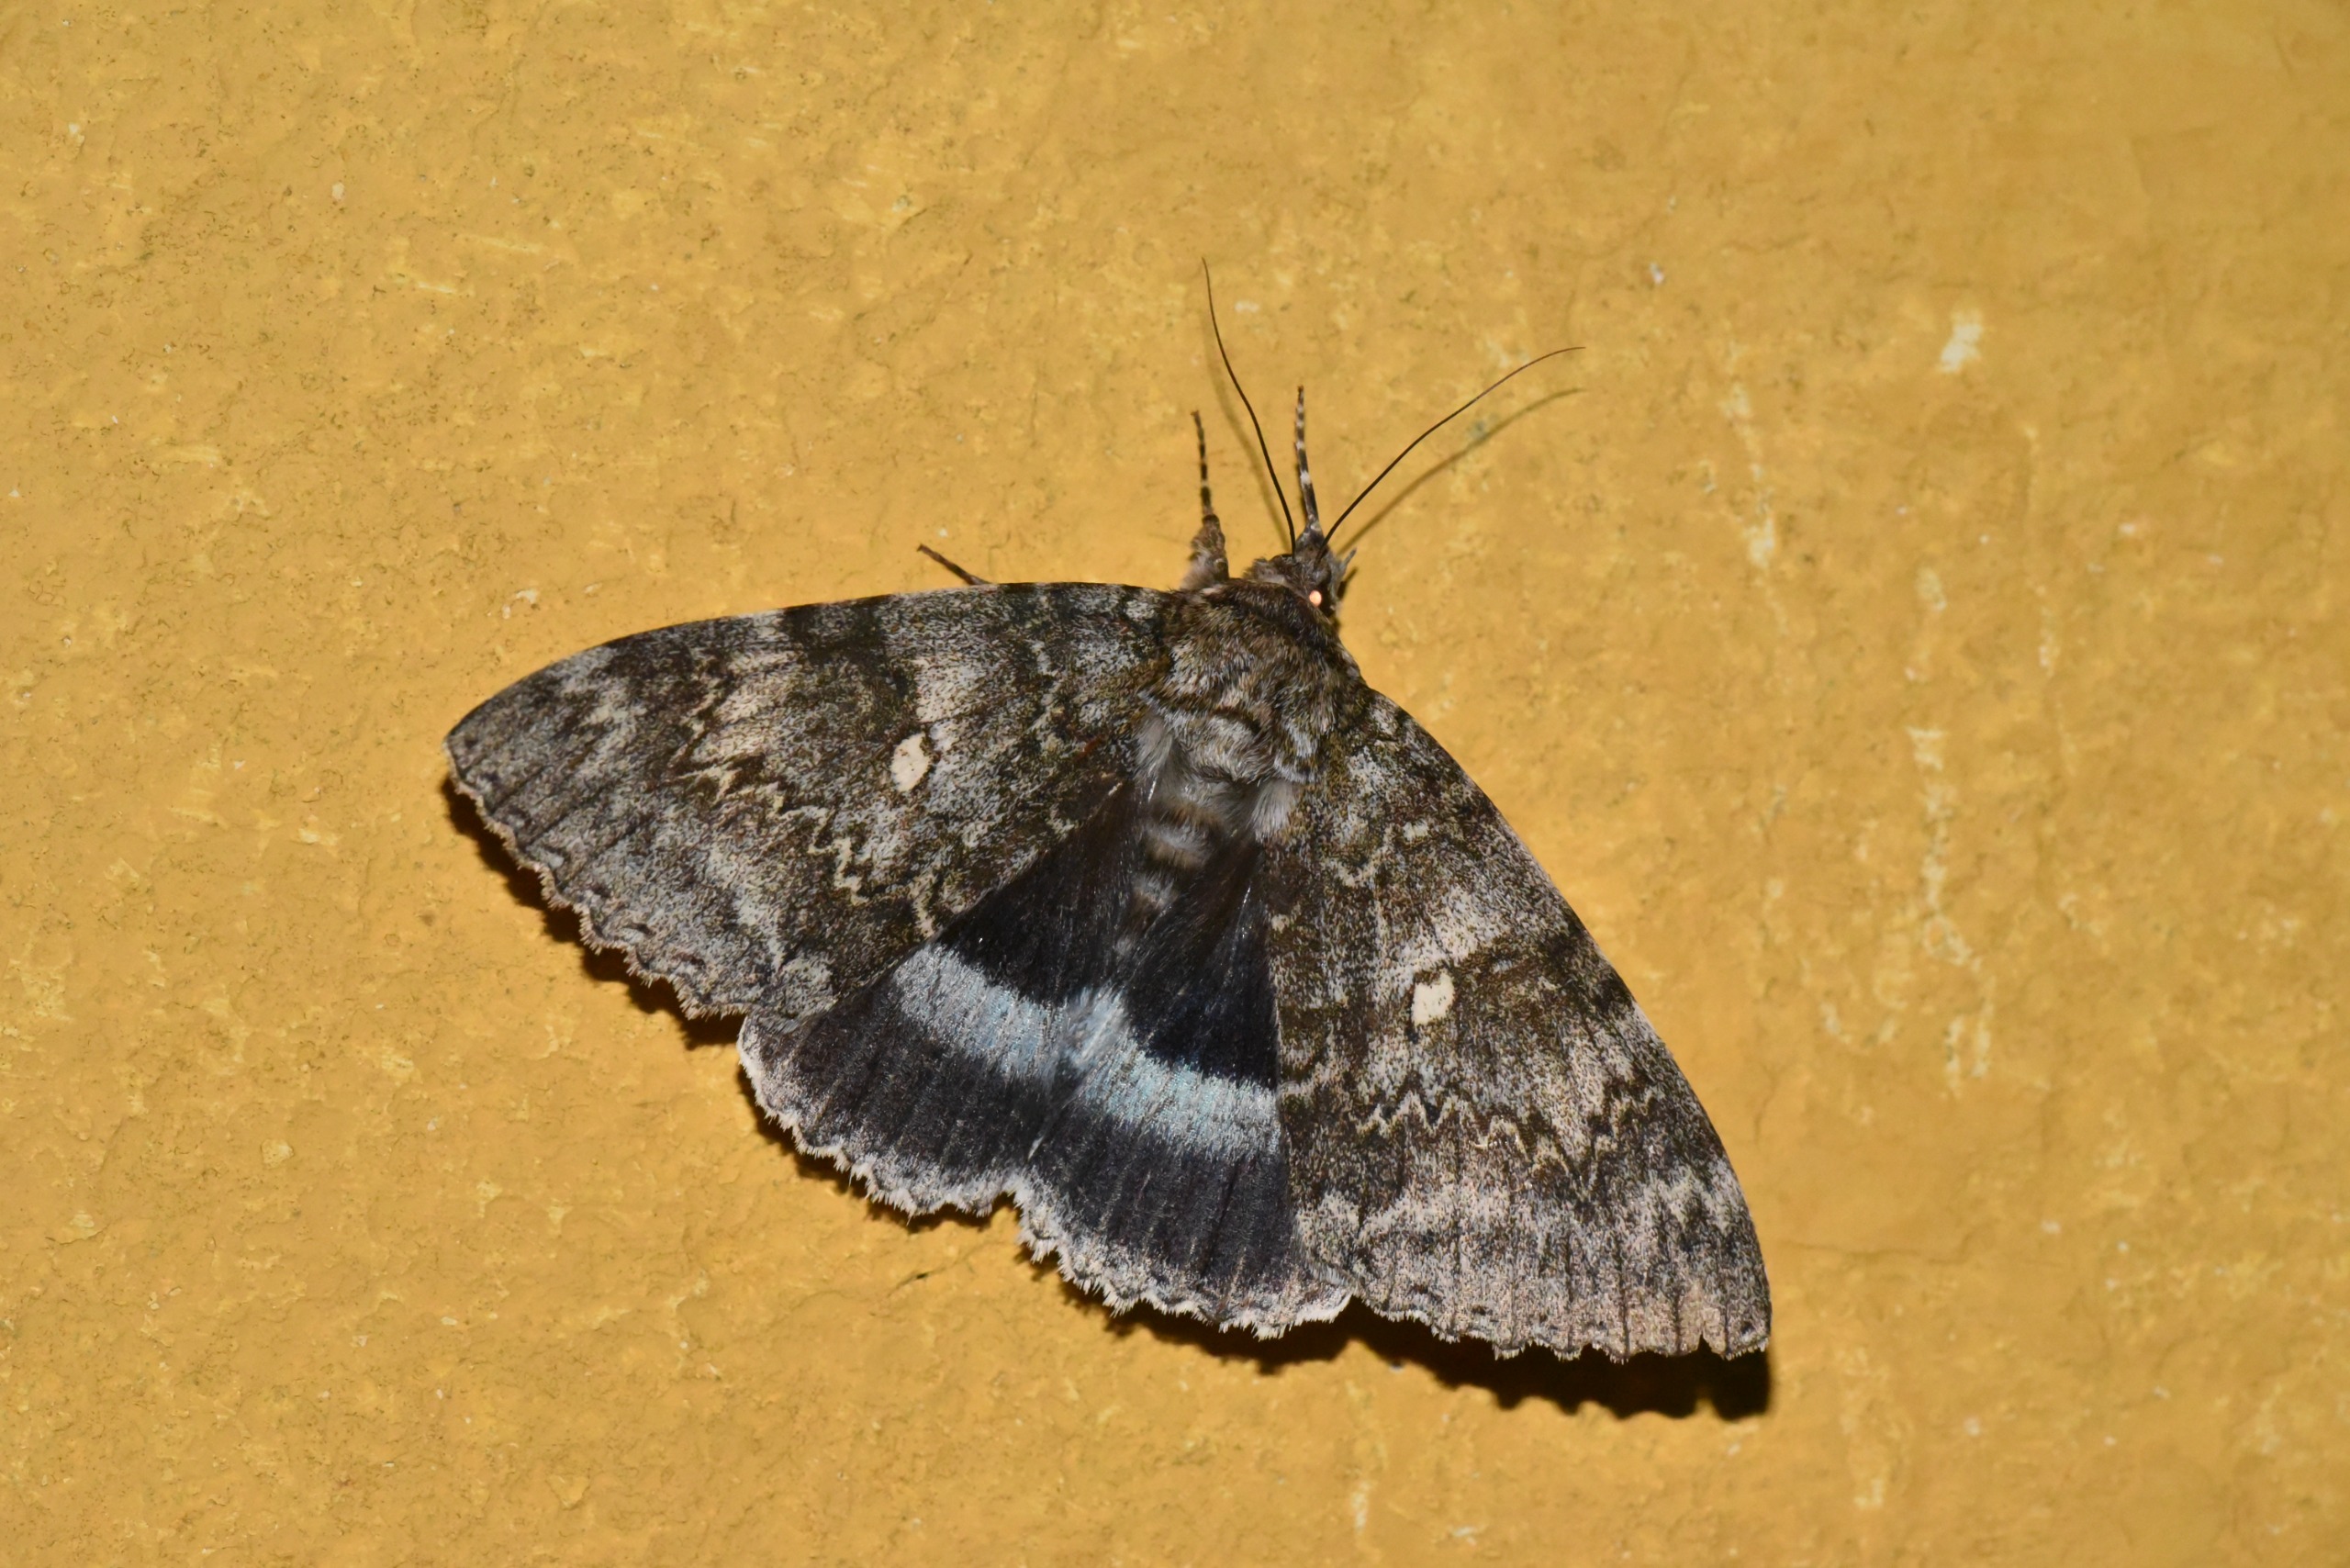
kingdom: Animalia
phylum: Arthropoda
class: Insecta
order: Lepidoptera
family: Erebidae
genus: Catocala
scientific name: Catocala fraxini
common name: Blåt ordensbånd
